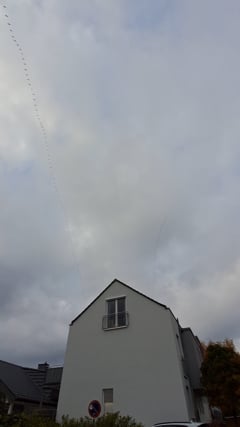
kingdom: Animalia
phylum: Chordata
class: Aves
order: Gruiformes
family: Gruidae
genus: Grus
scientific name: Grus grus
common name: Common crane
